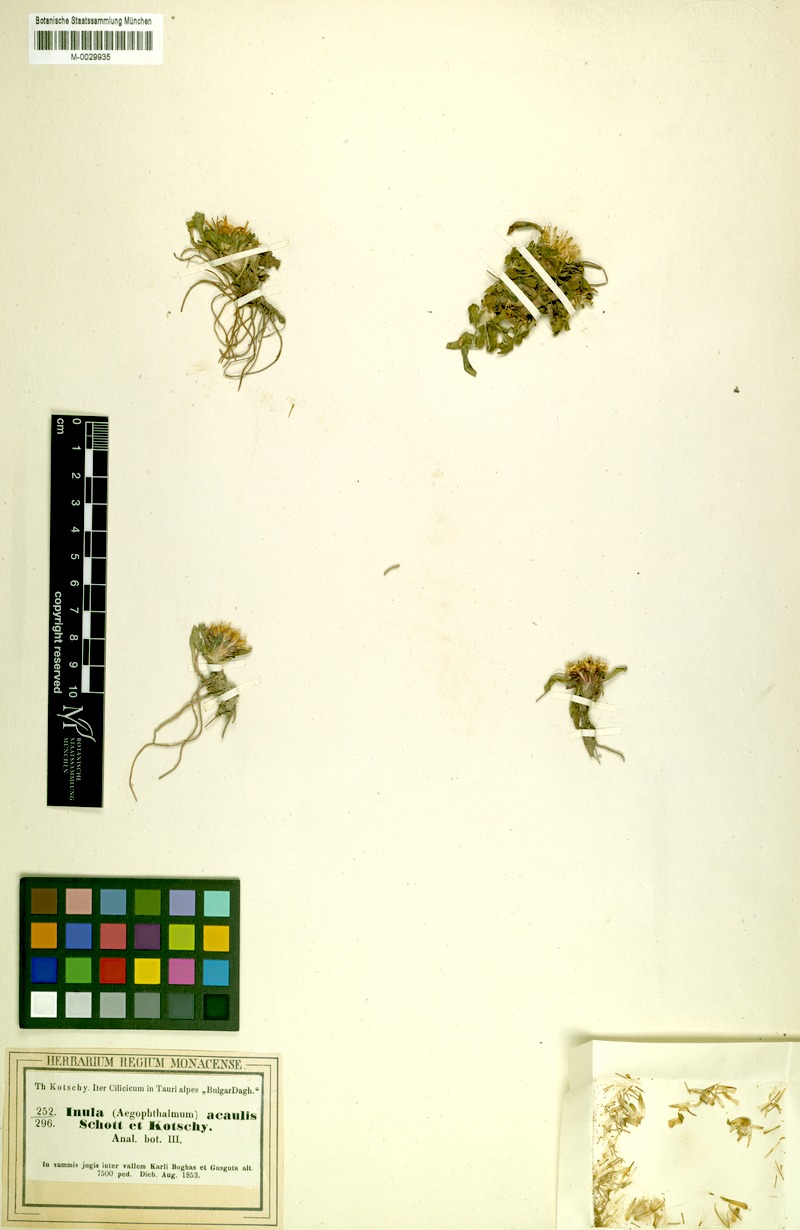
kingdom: Plantae
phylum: Tracheophyta
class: Magnoliopsida
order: Asterales
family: Asteraceae
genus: Inula
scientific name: Inula acaulis
